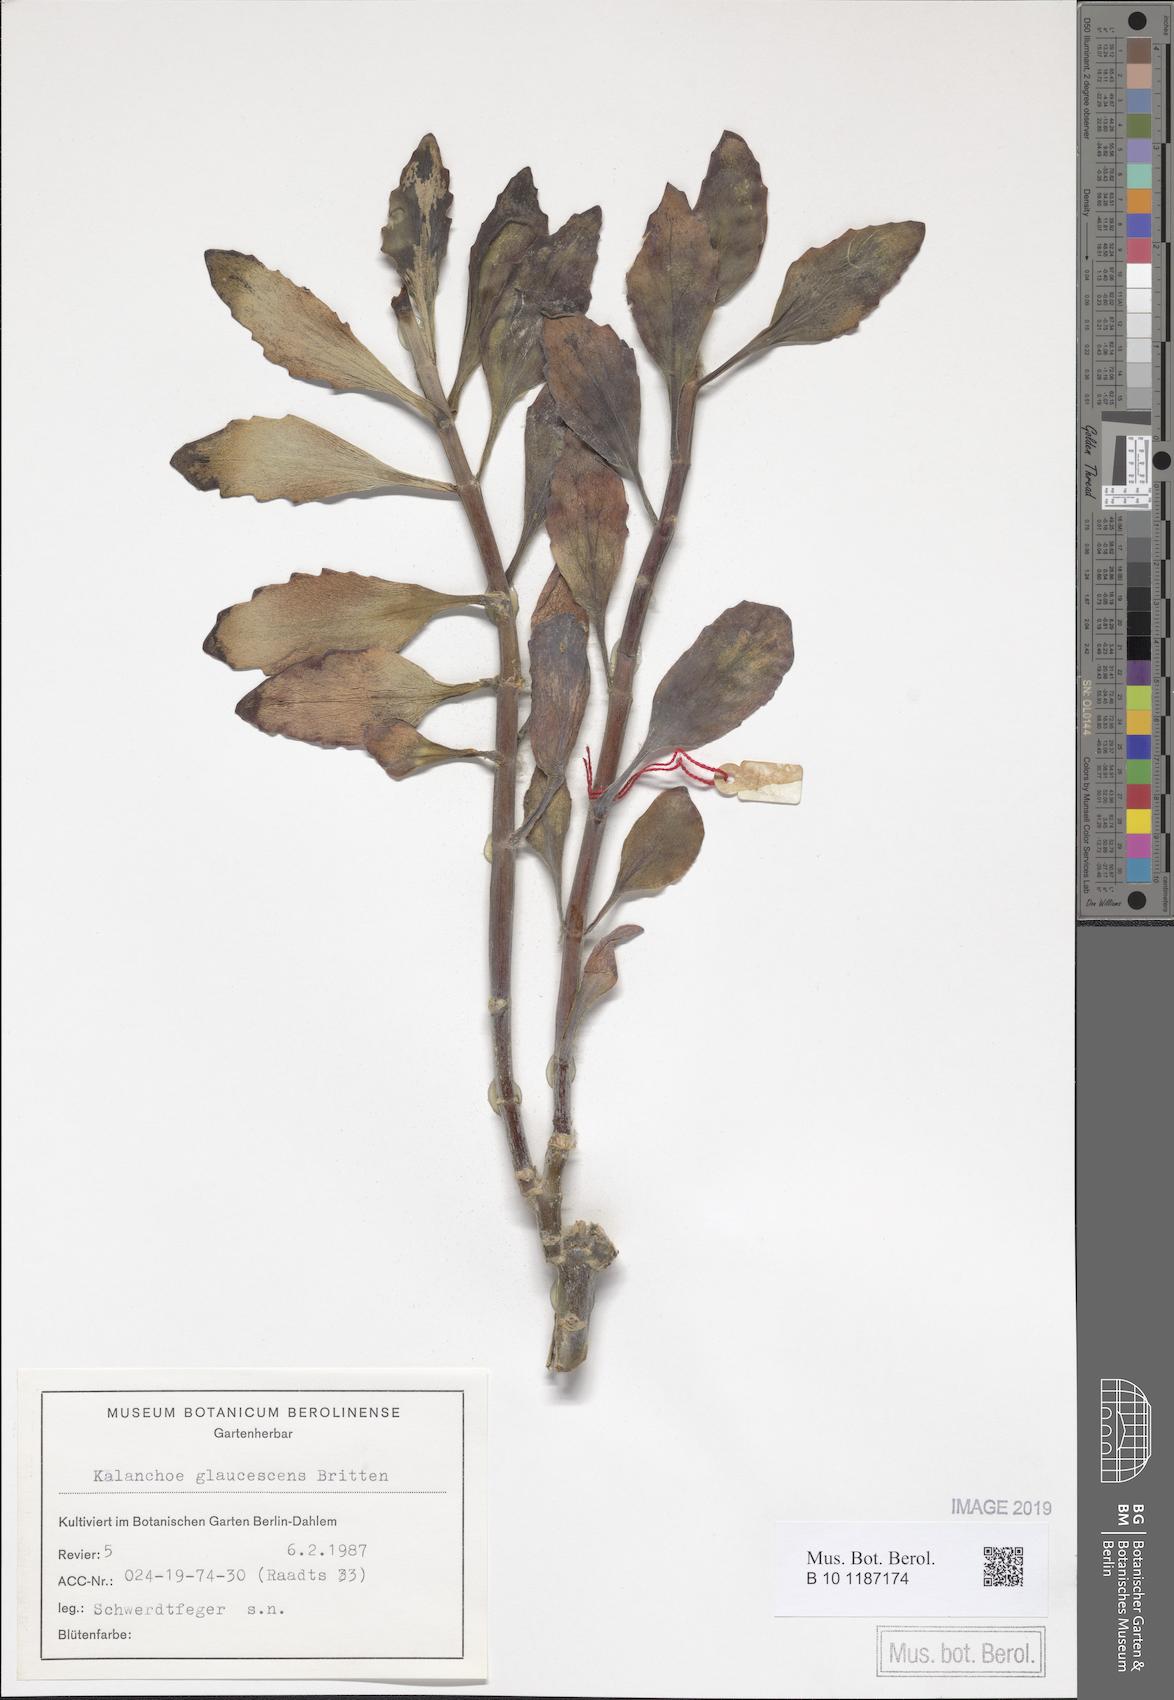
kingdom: Plantae
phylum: Tracheophyta
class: Magnoliopsida
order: Saxifragales
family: Crassulaceae
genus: Kalanchoe
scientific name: Kalanchoe glaucescens
